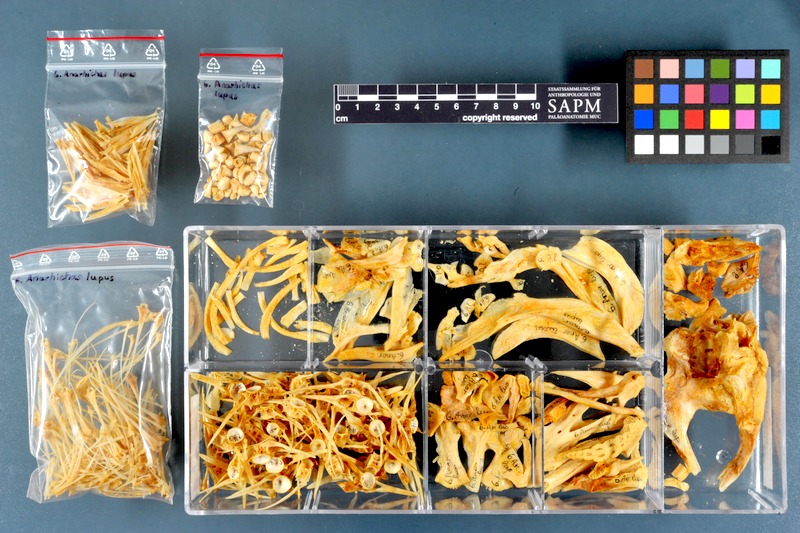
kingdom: Animalia
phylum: Chordata
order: Perciformes
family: Anarhichadidae
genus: Anarhichas
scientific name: Anarhichas lupus
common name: Wolf-fish
